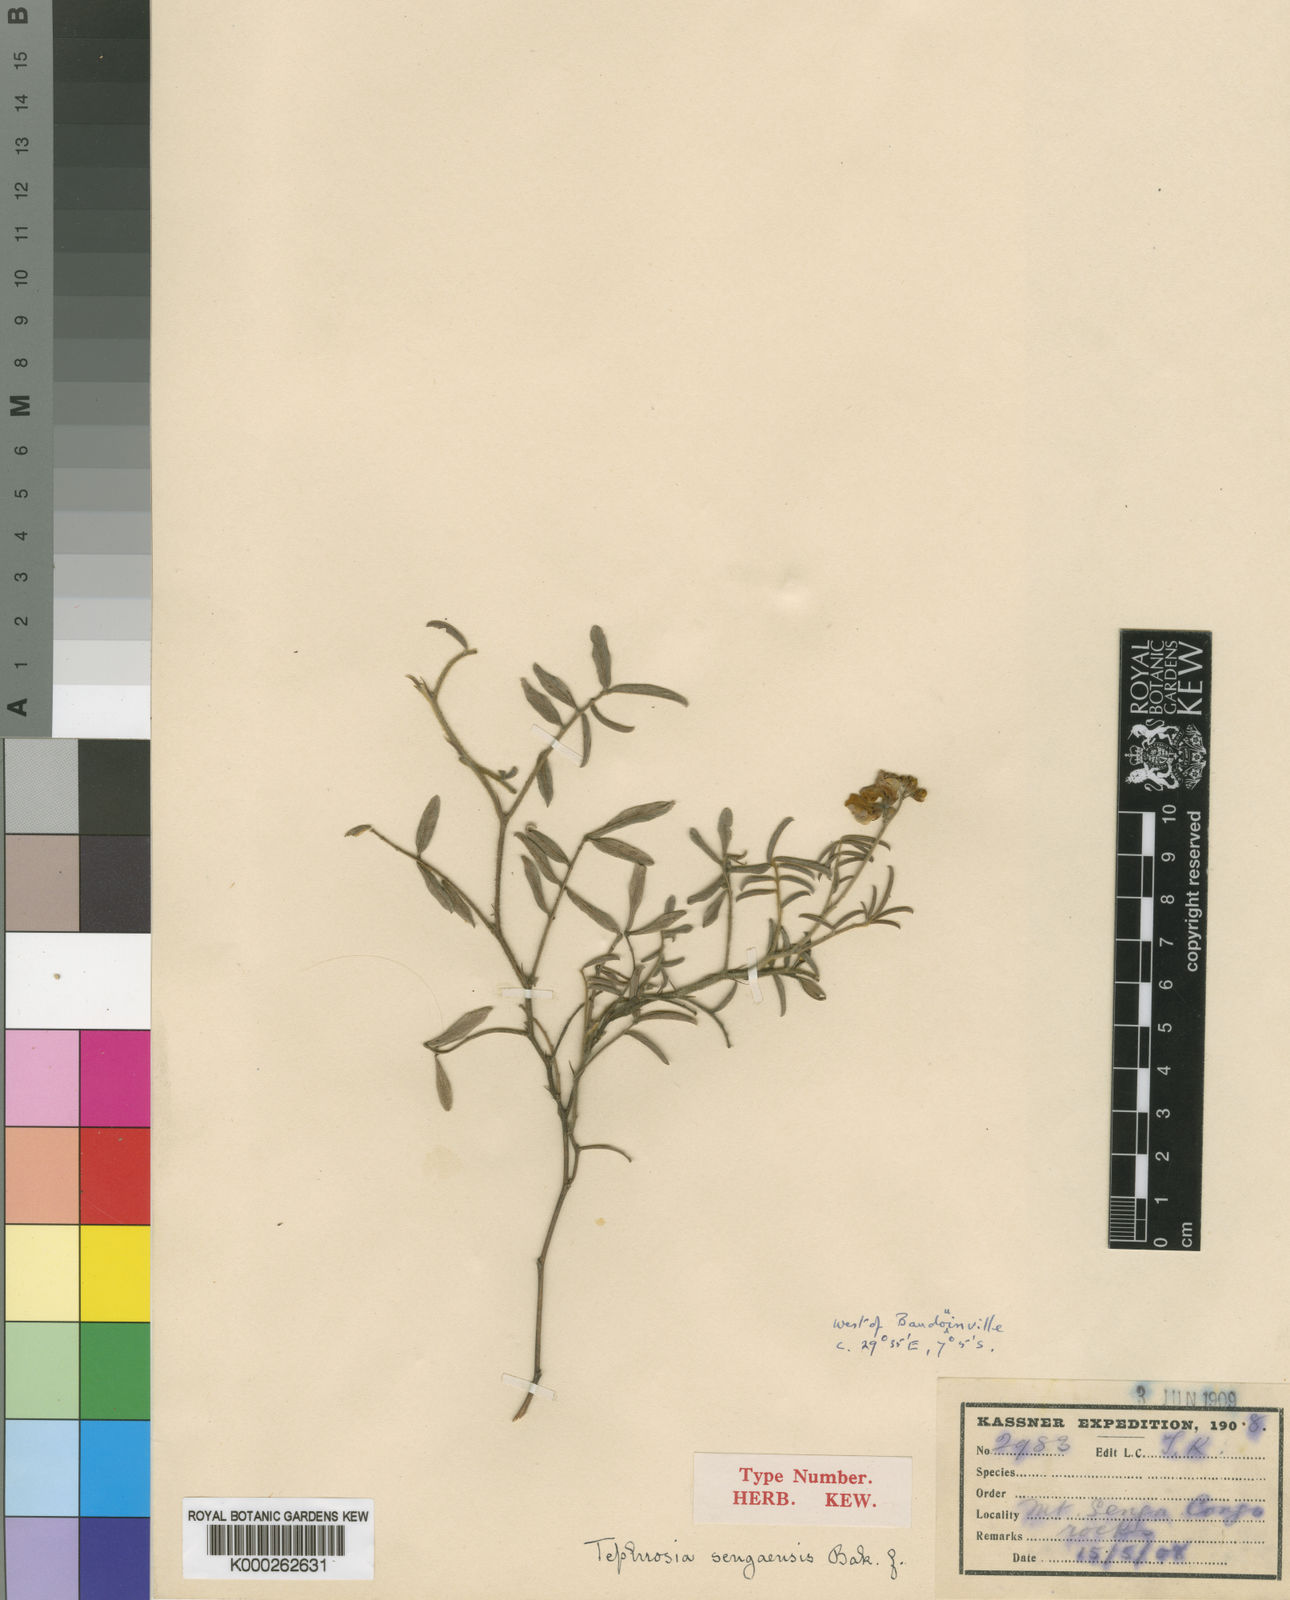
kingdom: Plantae
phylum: Tracheophyta
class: Magnoliopsida
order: Fabales
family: Fabaceae
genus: Tephrosia
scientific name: Tephrosia sengaensis
